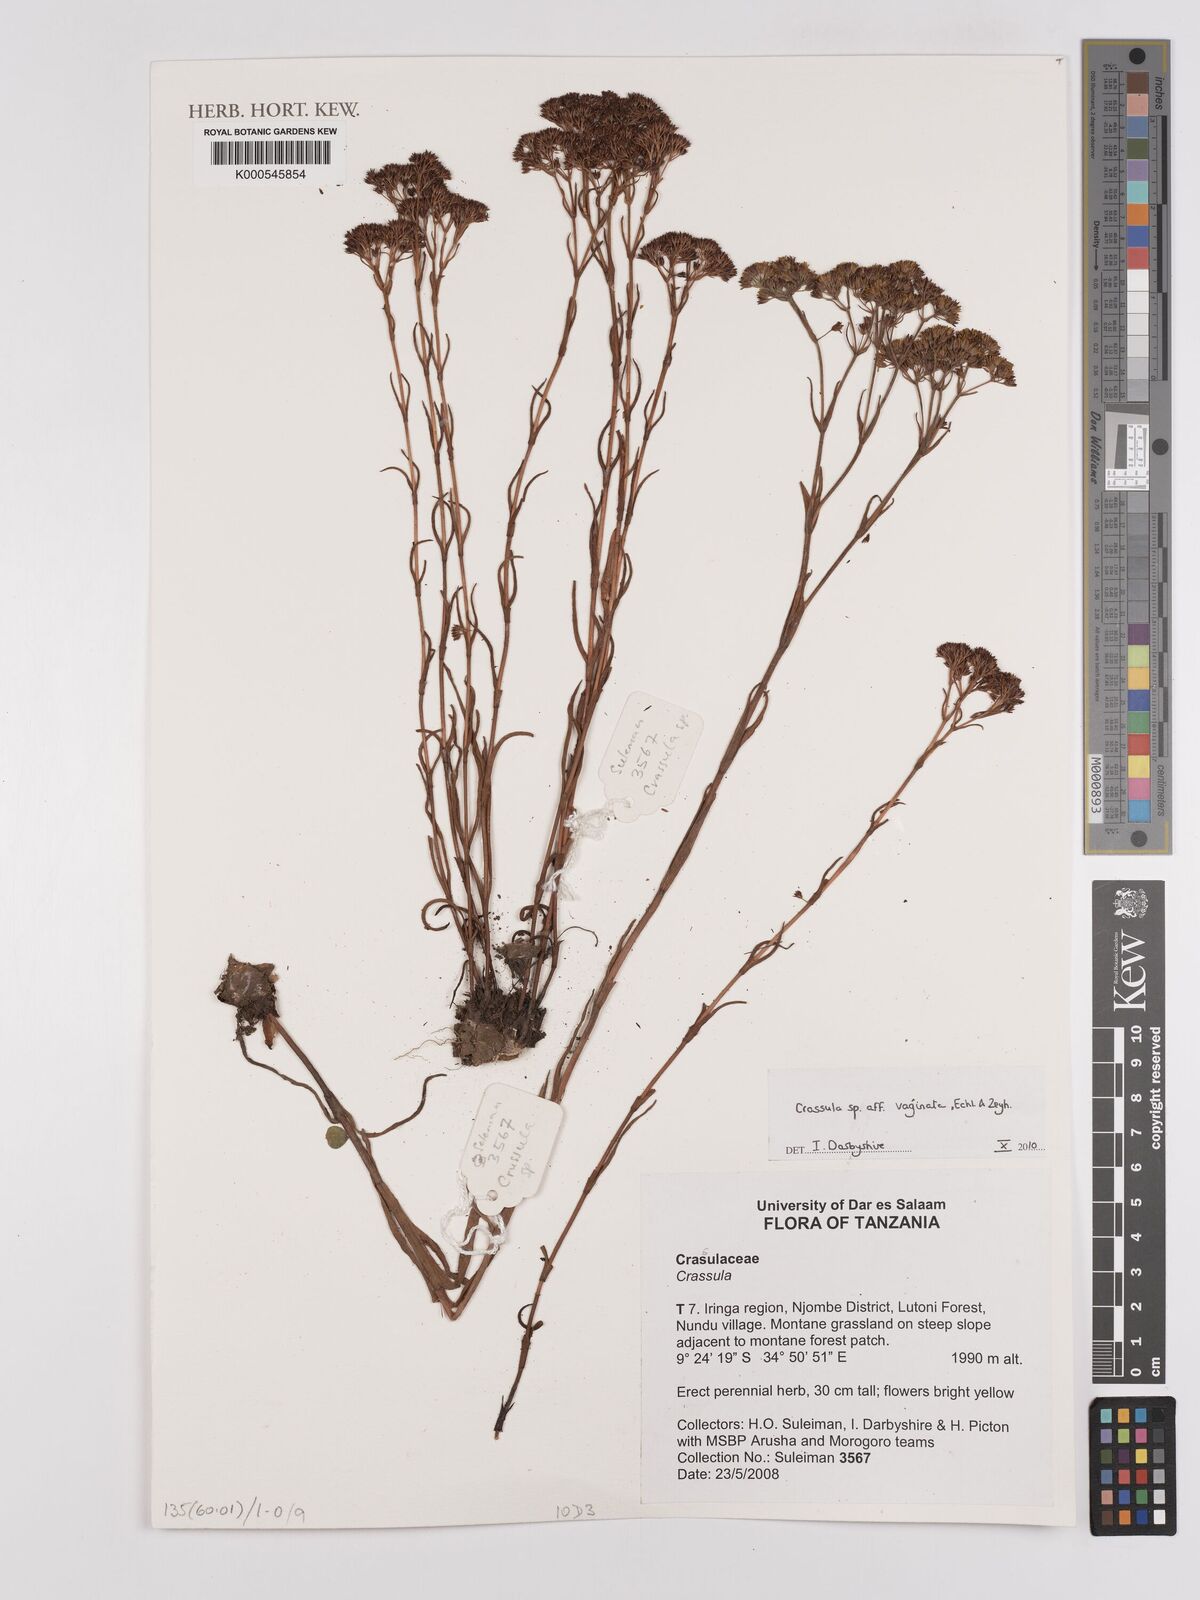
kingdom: Plantae
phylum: Tracheophyta
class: Magnoliopsida
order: Saxifragales
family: Crassulaceae
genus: Crassula
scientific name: Crassula
